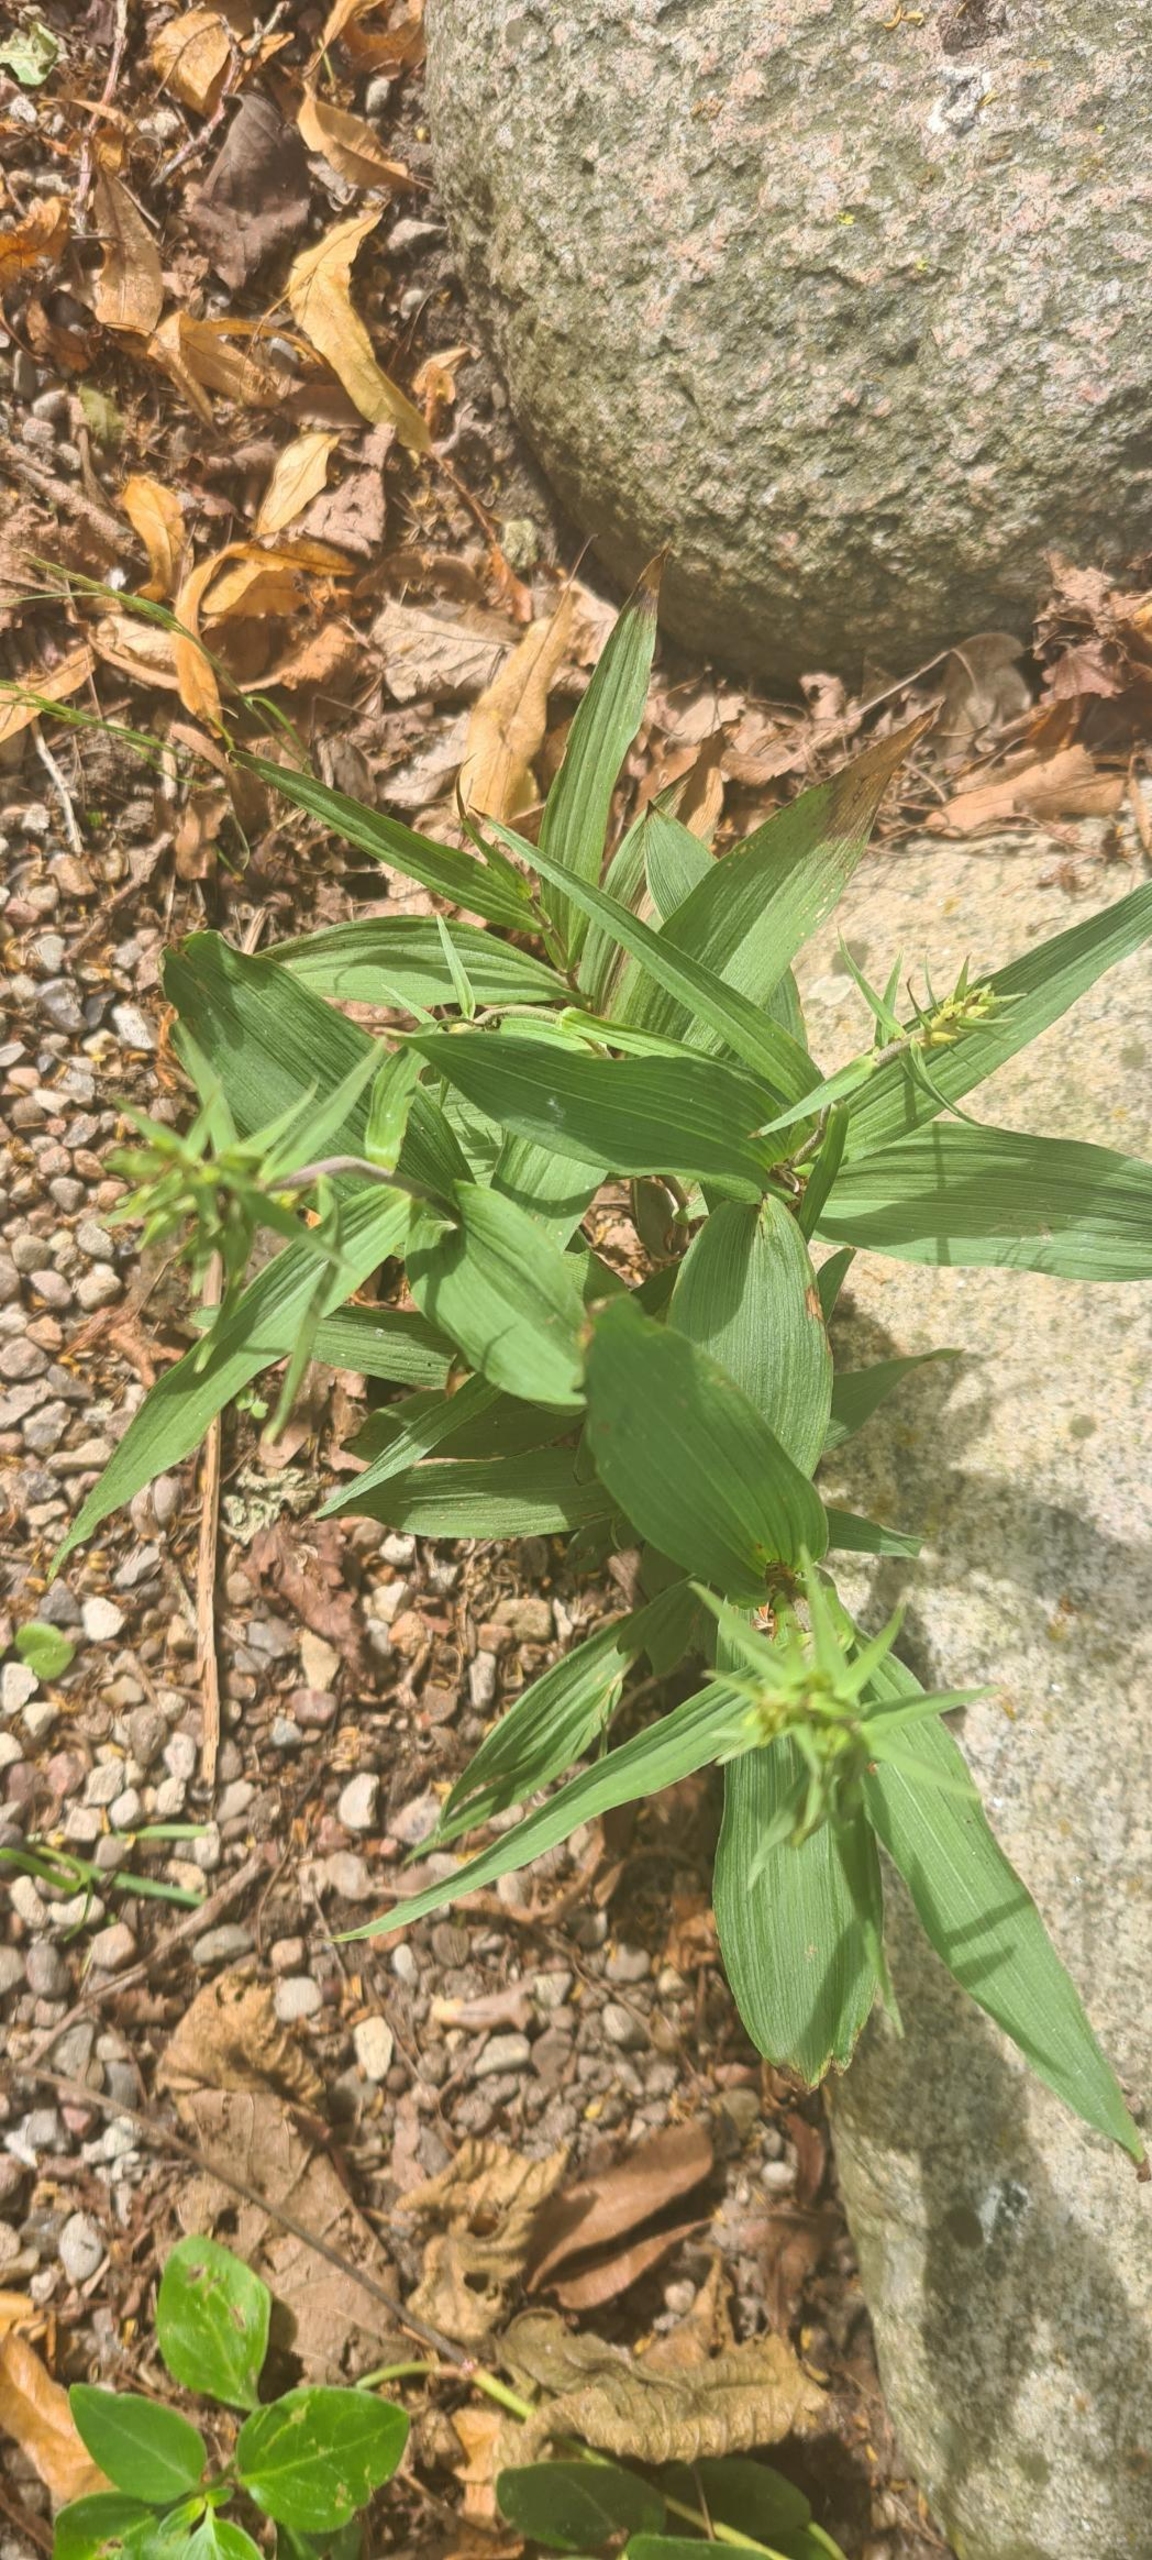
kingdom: Plantae
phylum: Tracheophyta
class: Liliopsida
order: Asparagales
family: Orchidaceae
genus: Epipactis
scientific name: Epipactis helleborine
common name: Skov-hullæbe
